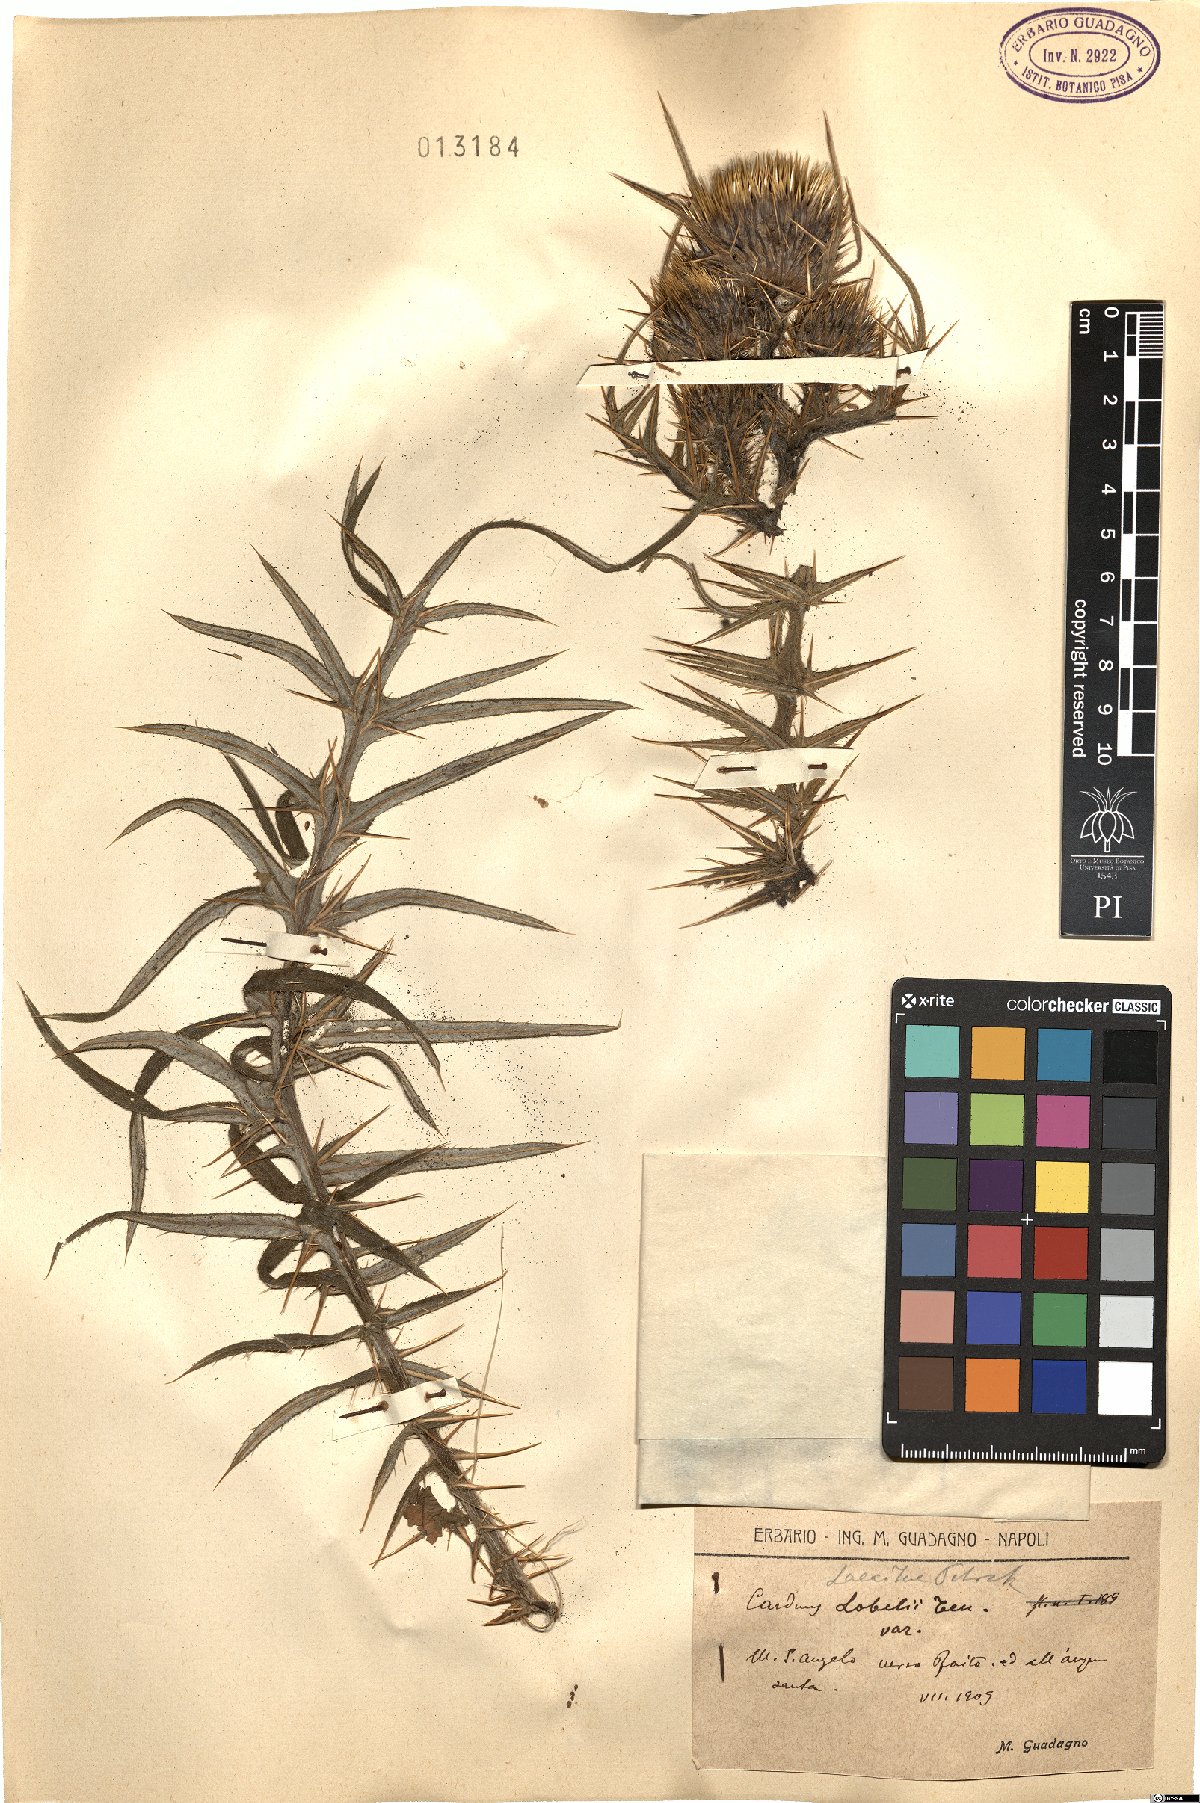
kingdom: Plantae
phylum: Tracheophyta
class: Magnoliopsida
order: Asterales
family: Asteraceae
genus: Lophiolepis
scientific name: Lophiolepis lacaitae
